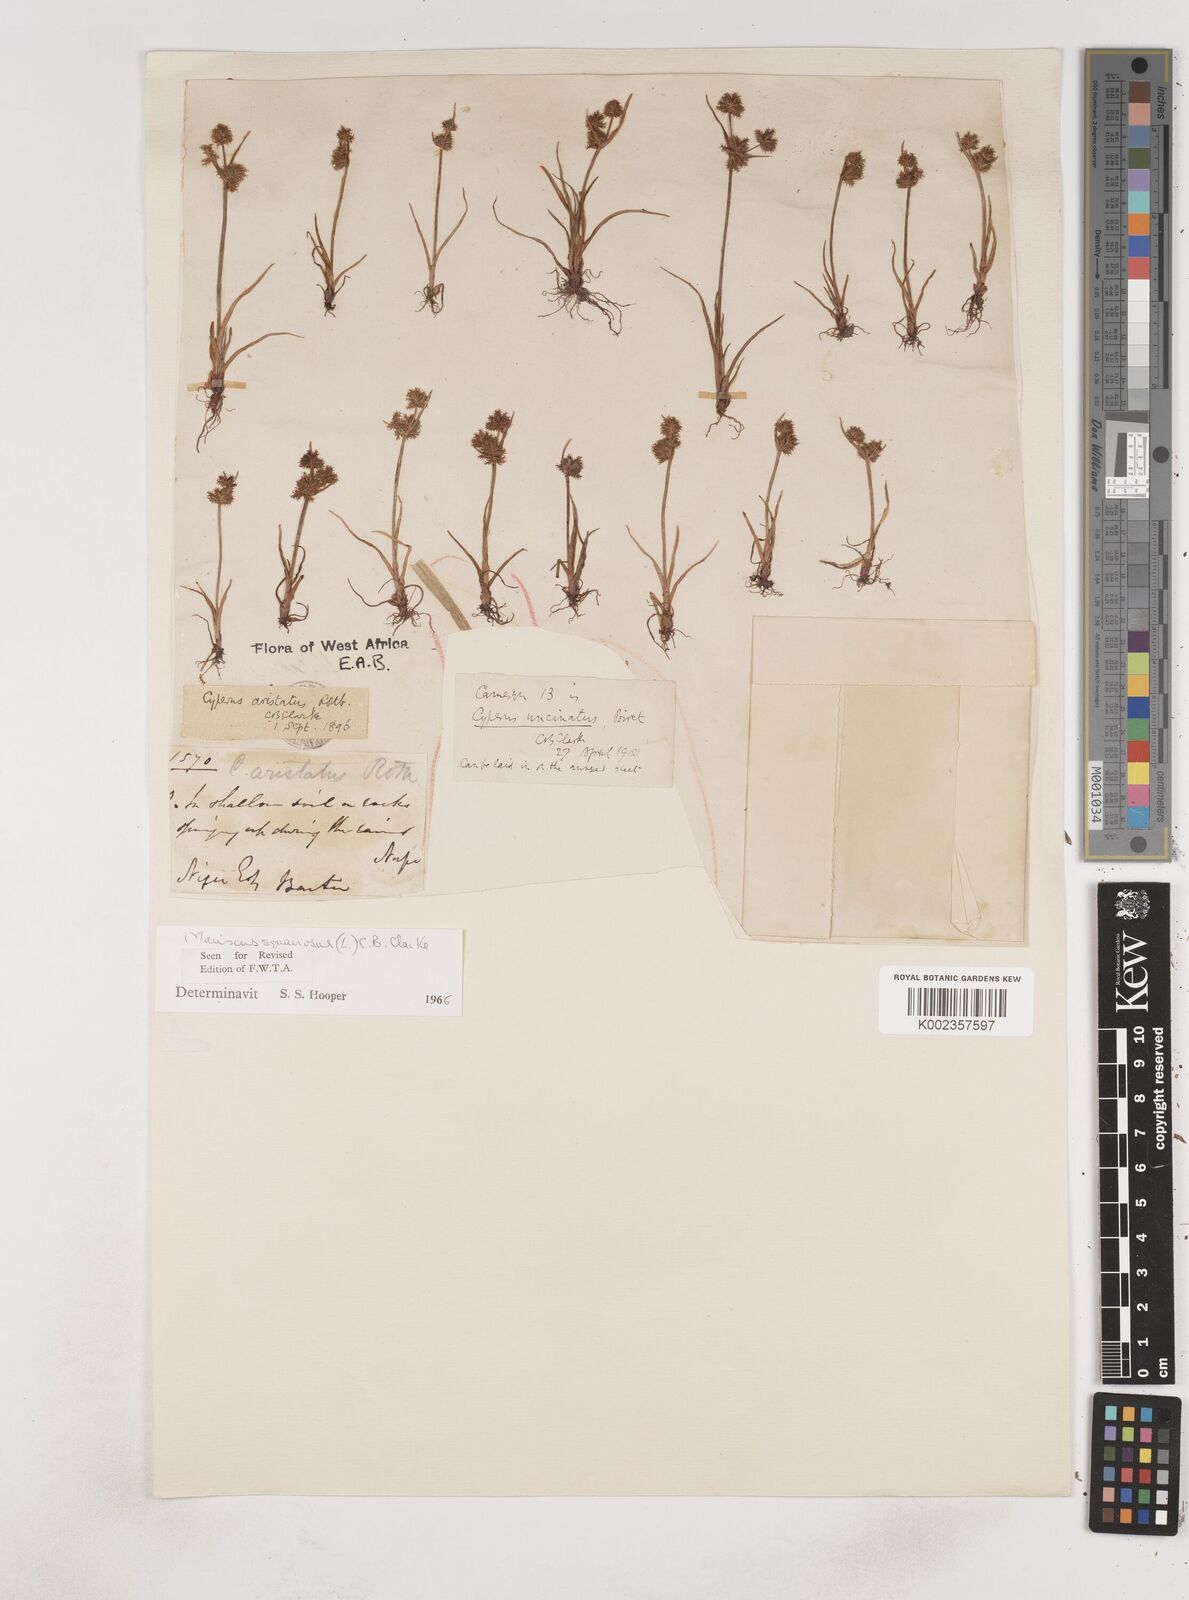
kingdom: Plantae
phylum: Tracheophyta
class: Liliopsida
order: Poales
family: Cyperaceae
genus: Cyperus
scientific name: Cyperus squarrosus
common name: Awned cyperus
